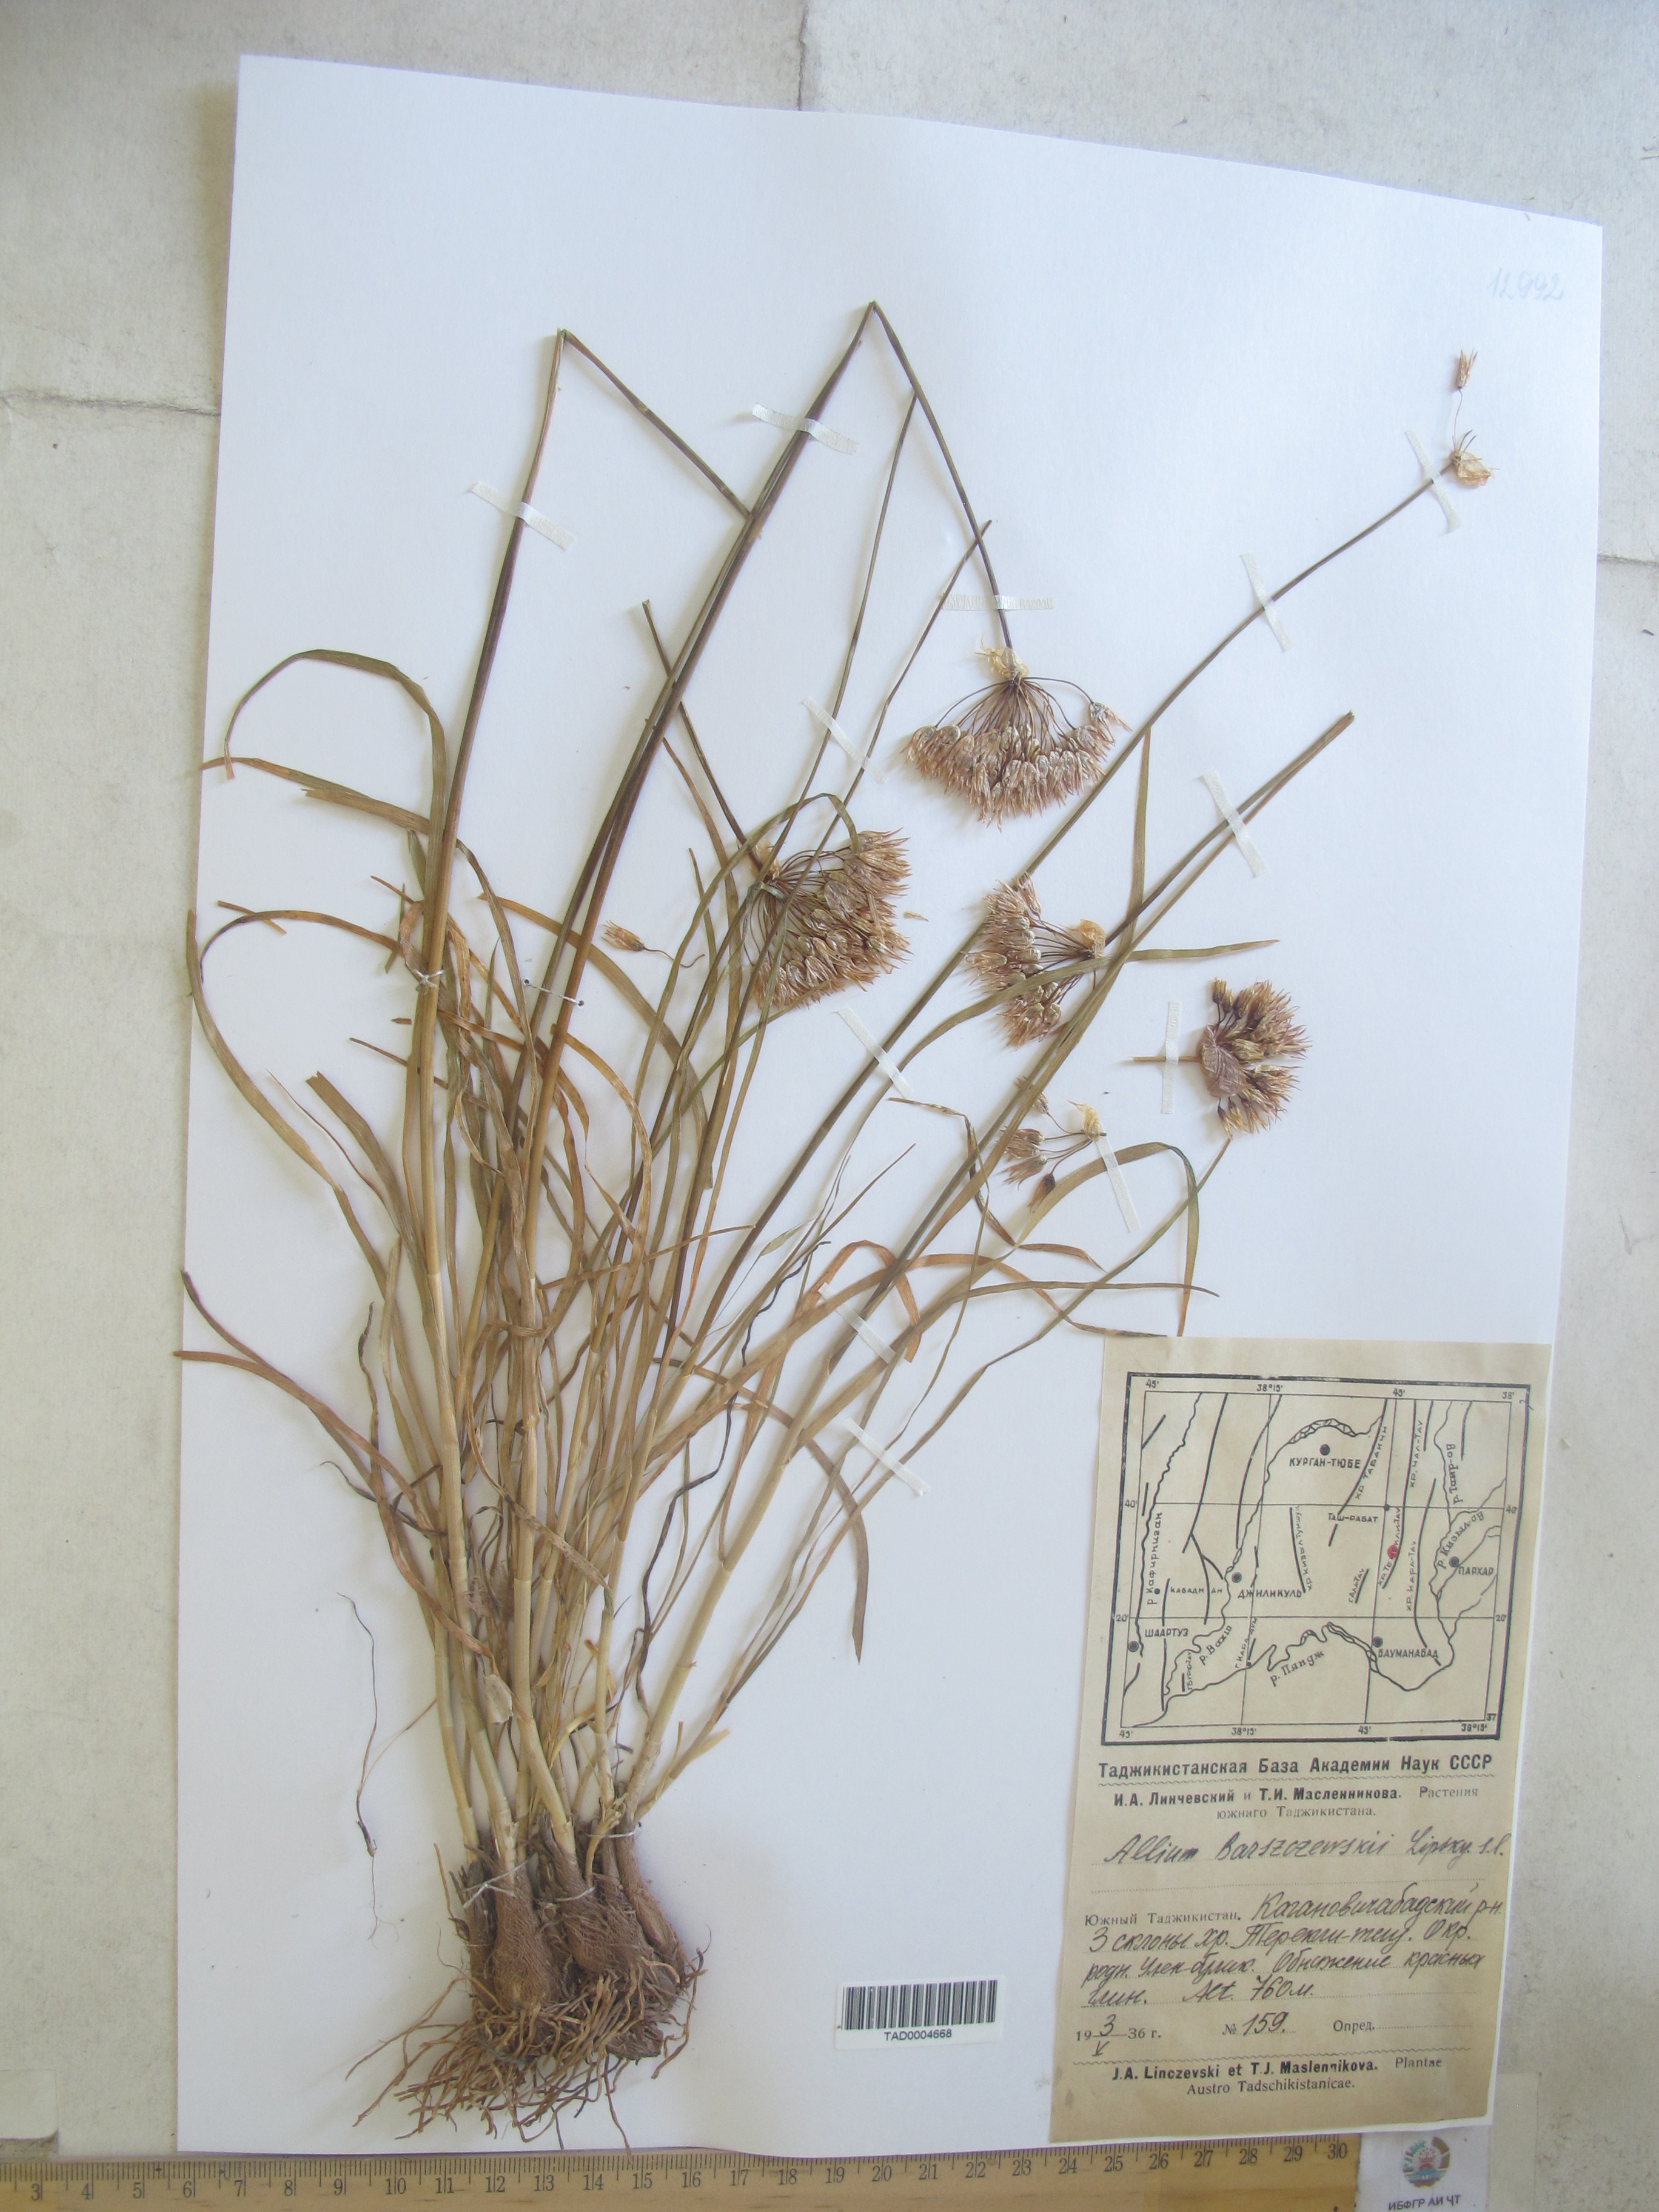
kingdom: Plantae
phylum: Tracheophyta
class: Liliopsida
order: Asparagales
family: Amaryllidaceae
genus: Allium
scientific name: Allium barsczewskii
